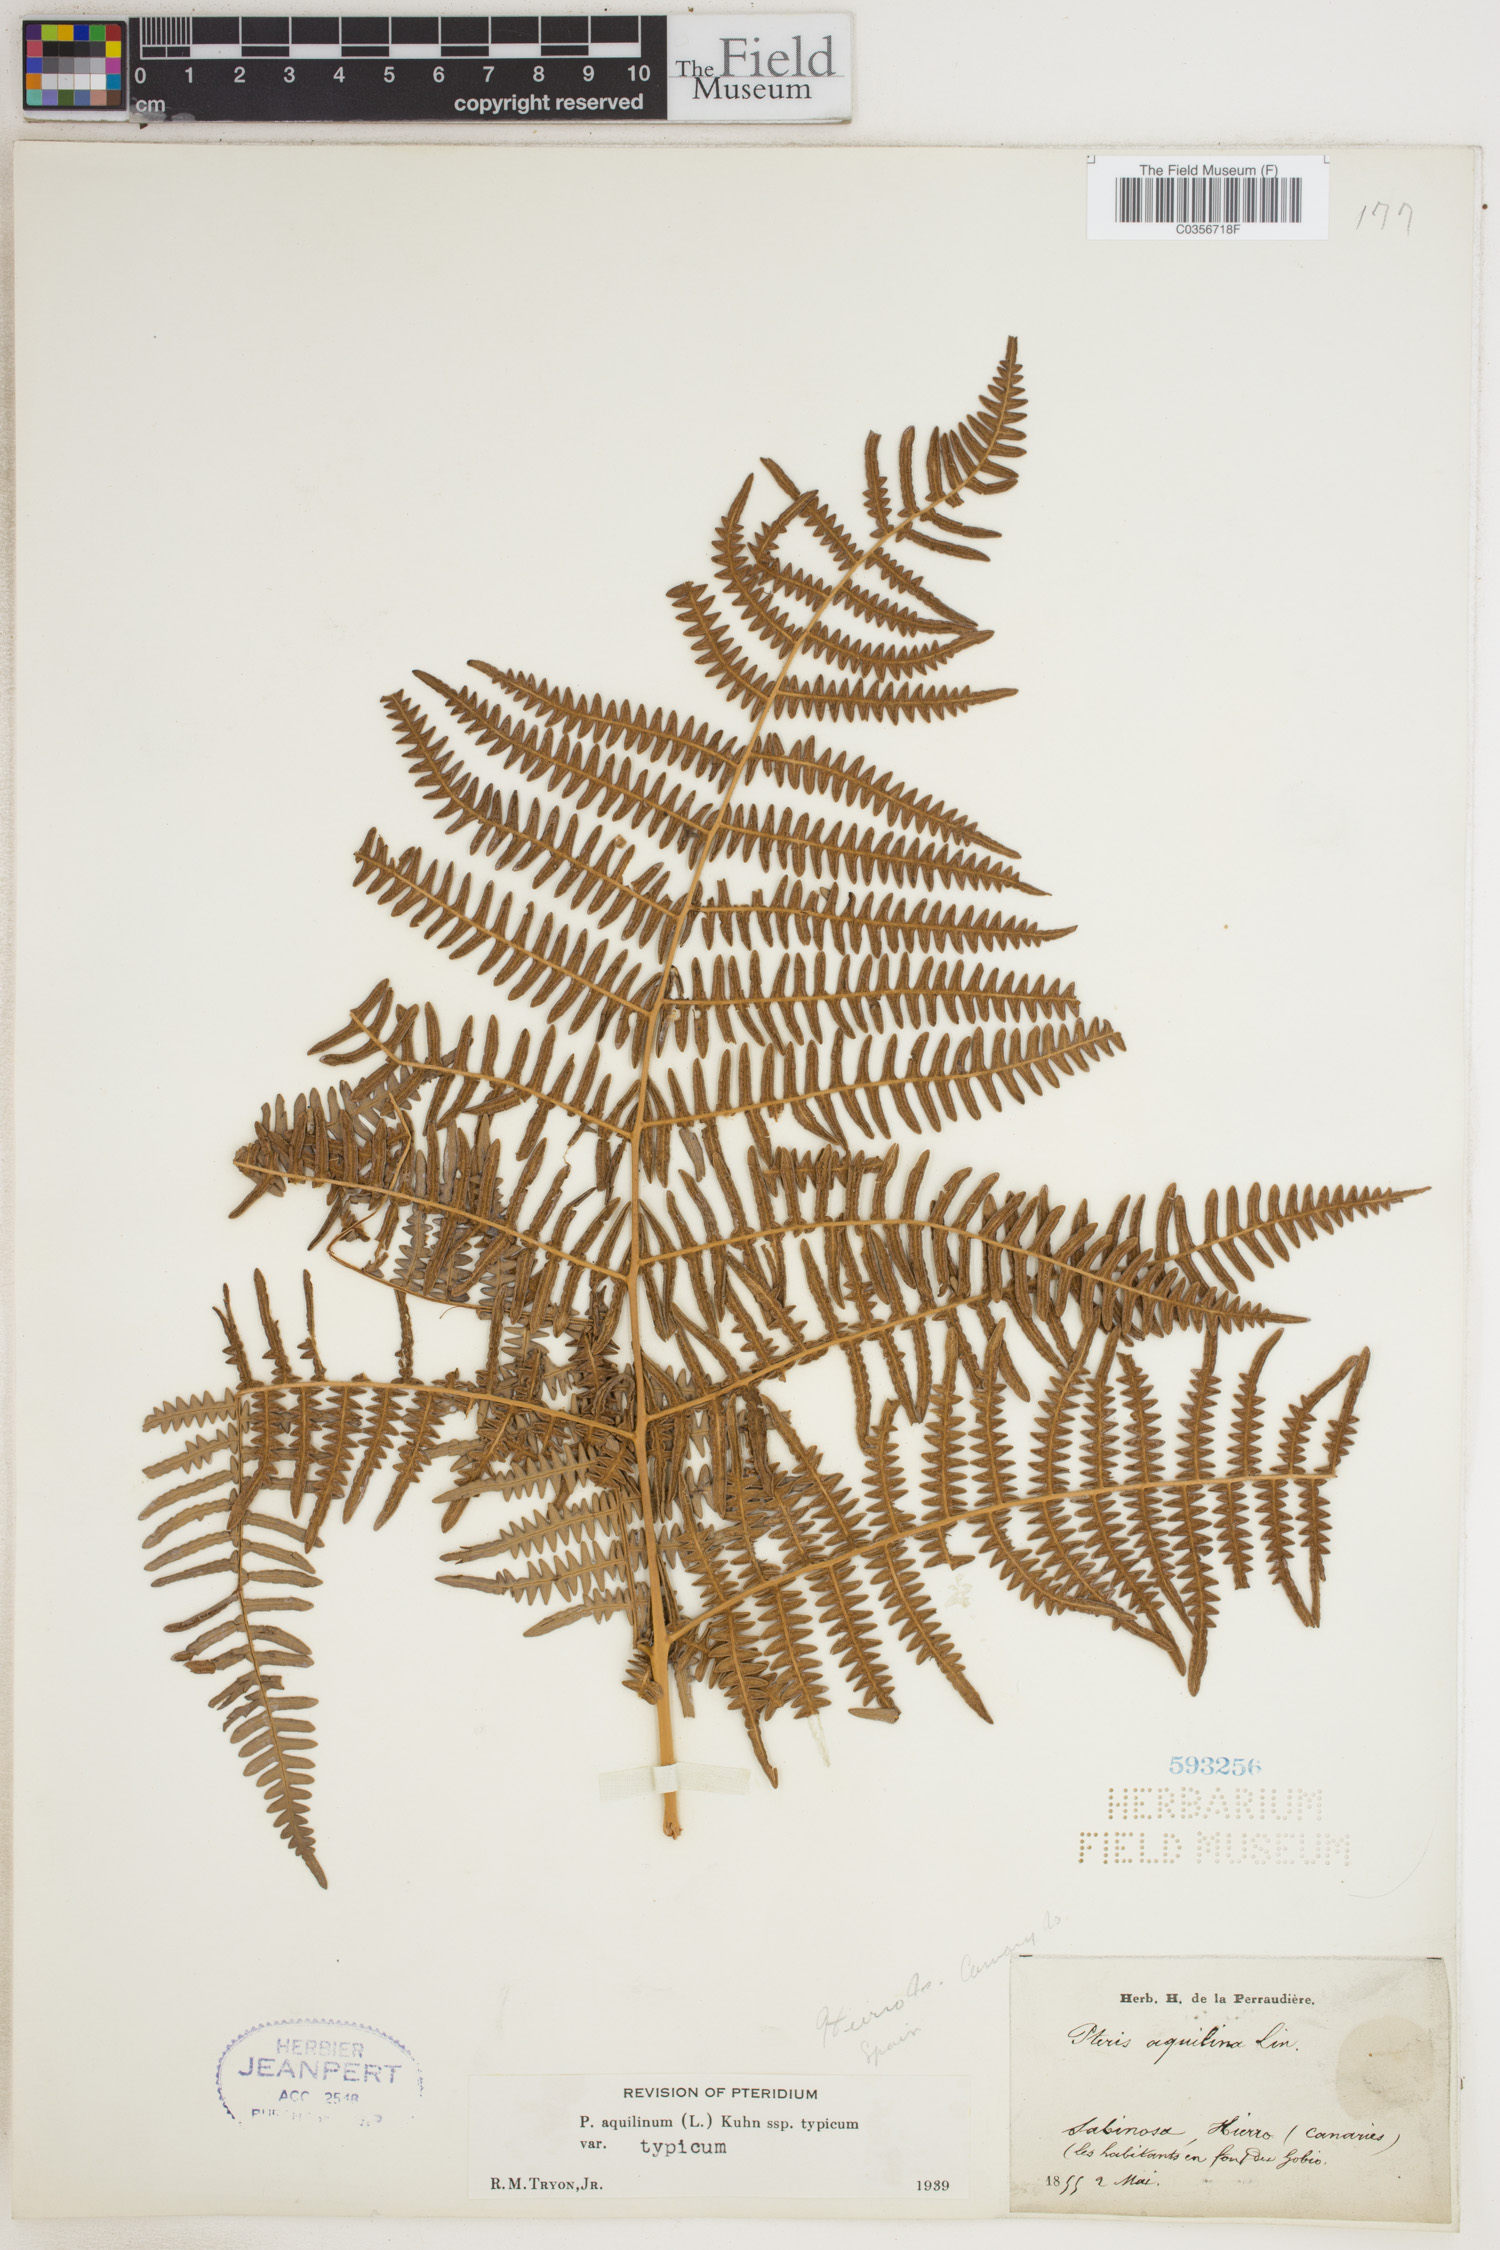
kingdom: Plantae
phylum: Tracheophyta
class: Polypodiopsida
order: Polypodiales
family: Dennstaedtiaceae
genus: Pteridium
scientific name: Pteridium aquilinum
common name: Bracken
